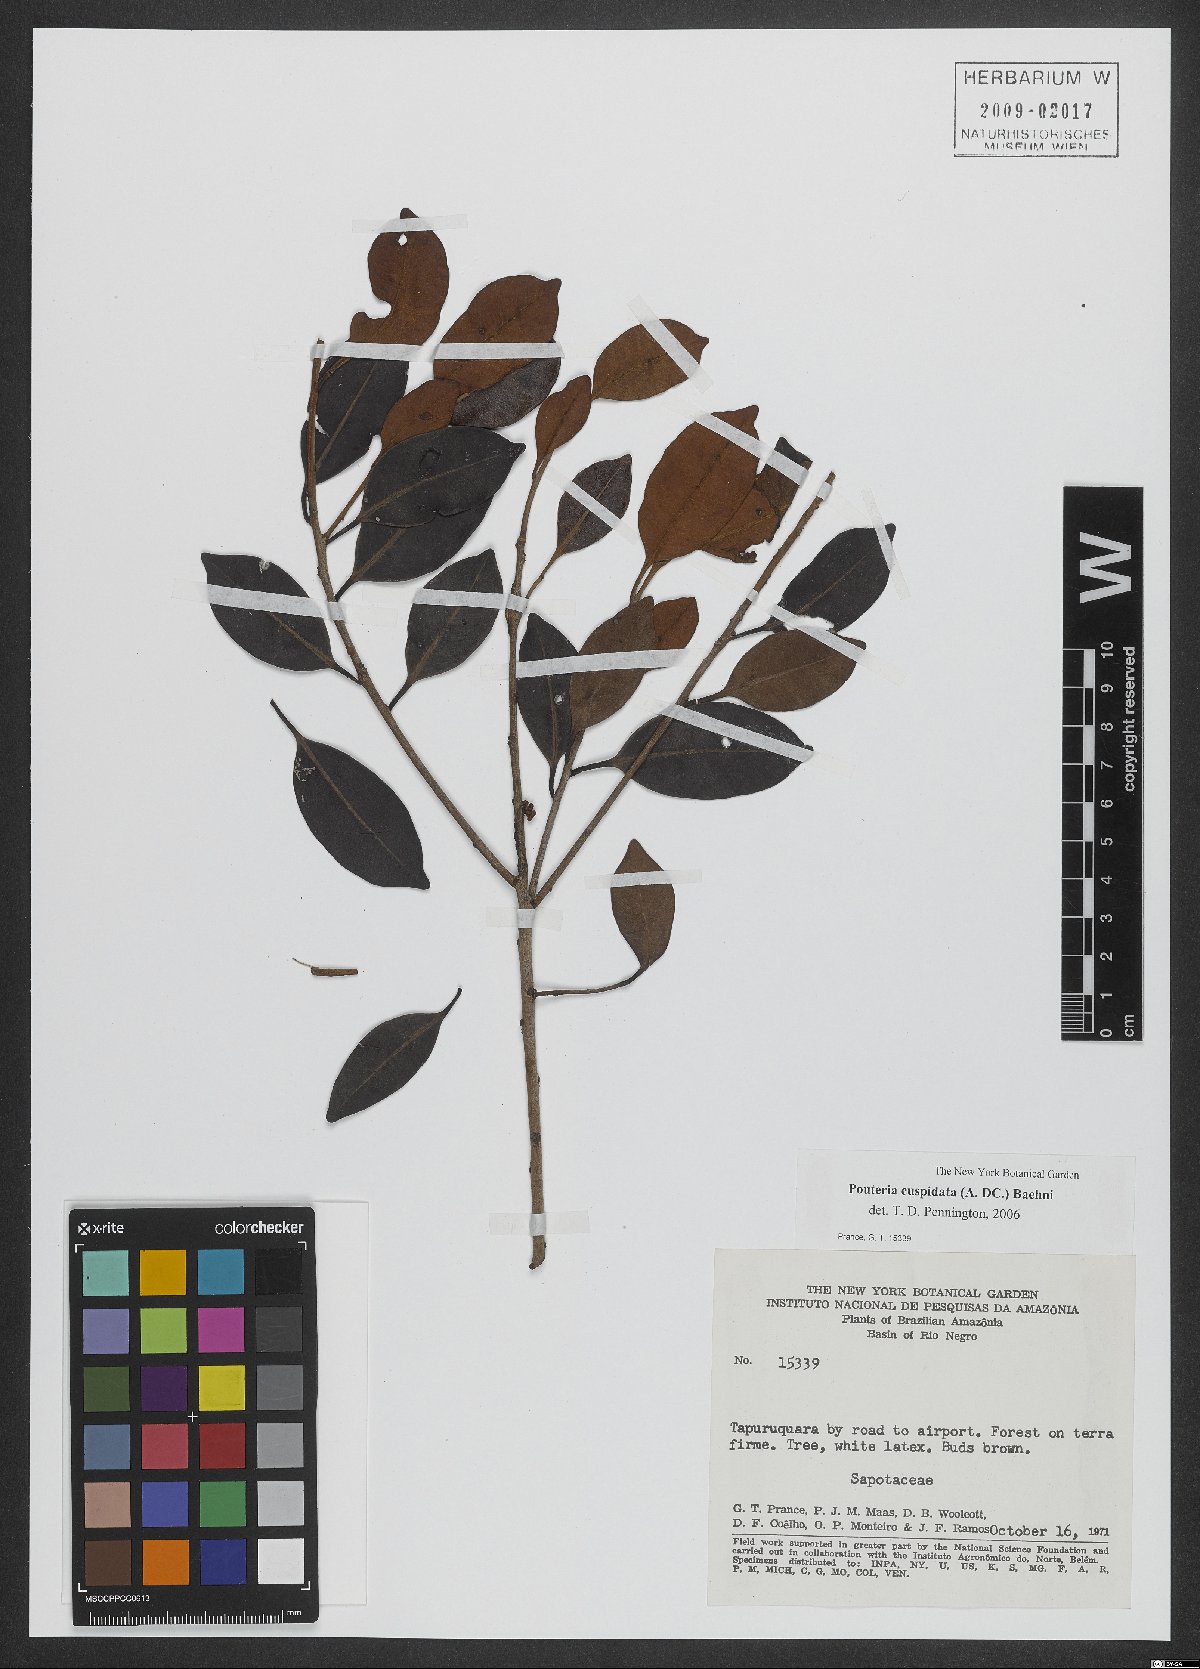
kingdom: Plantae
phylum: Tracheophyta
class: Magnoliopsida
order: Ericales
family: Sapotaceae
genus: Pouteria
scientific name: Pouteria cuspidata
